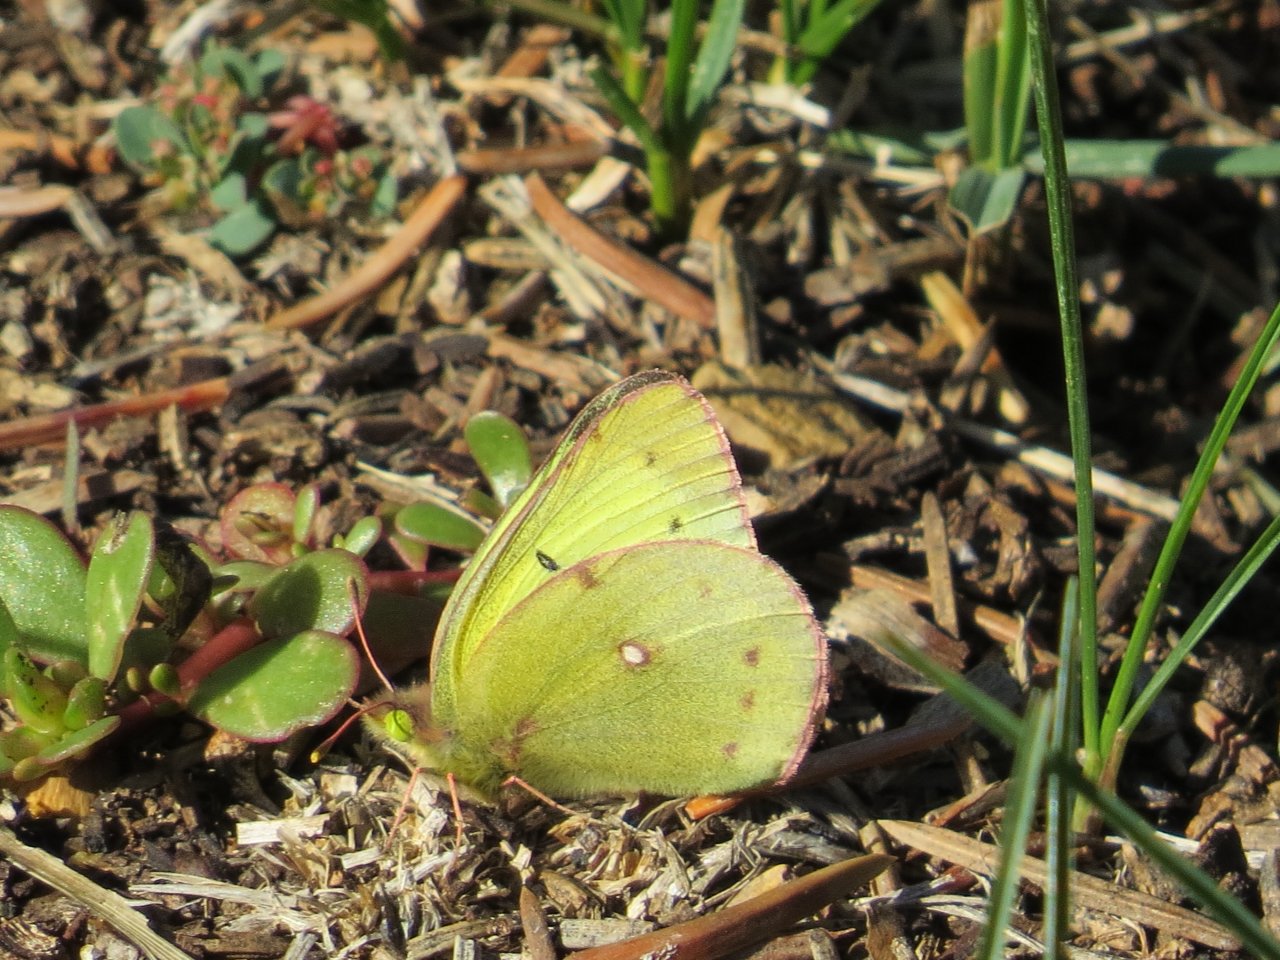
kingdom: Animalia
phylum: Arthropoda
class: Insecta
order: Lepidoptera
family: Pieridae
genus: Colias
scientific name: Colias philodice
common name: Clouded Sulphur
